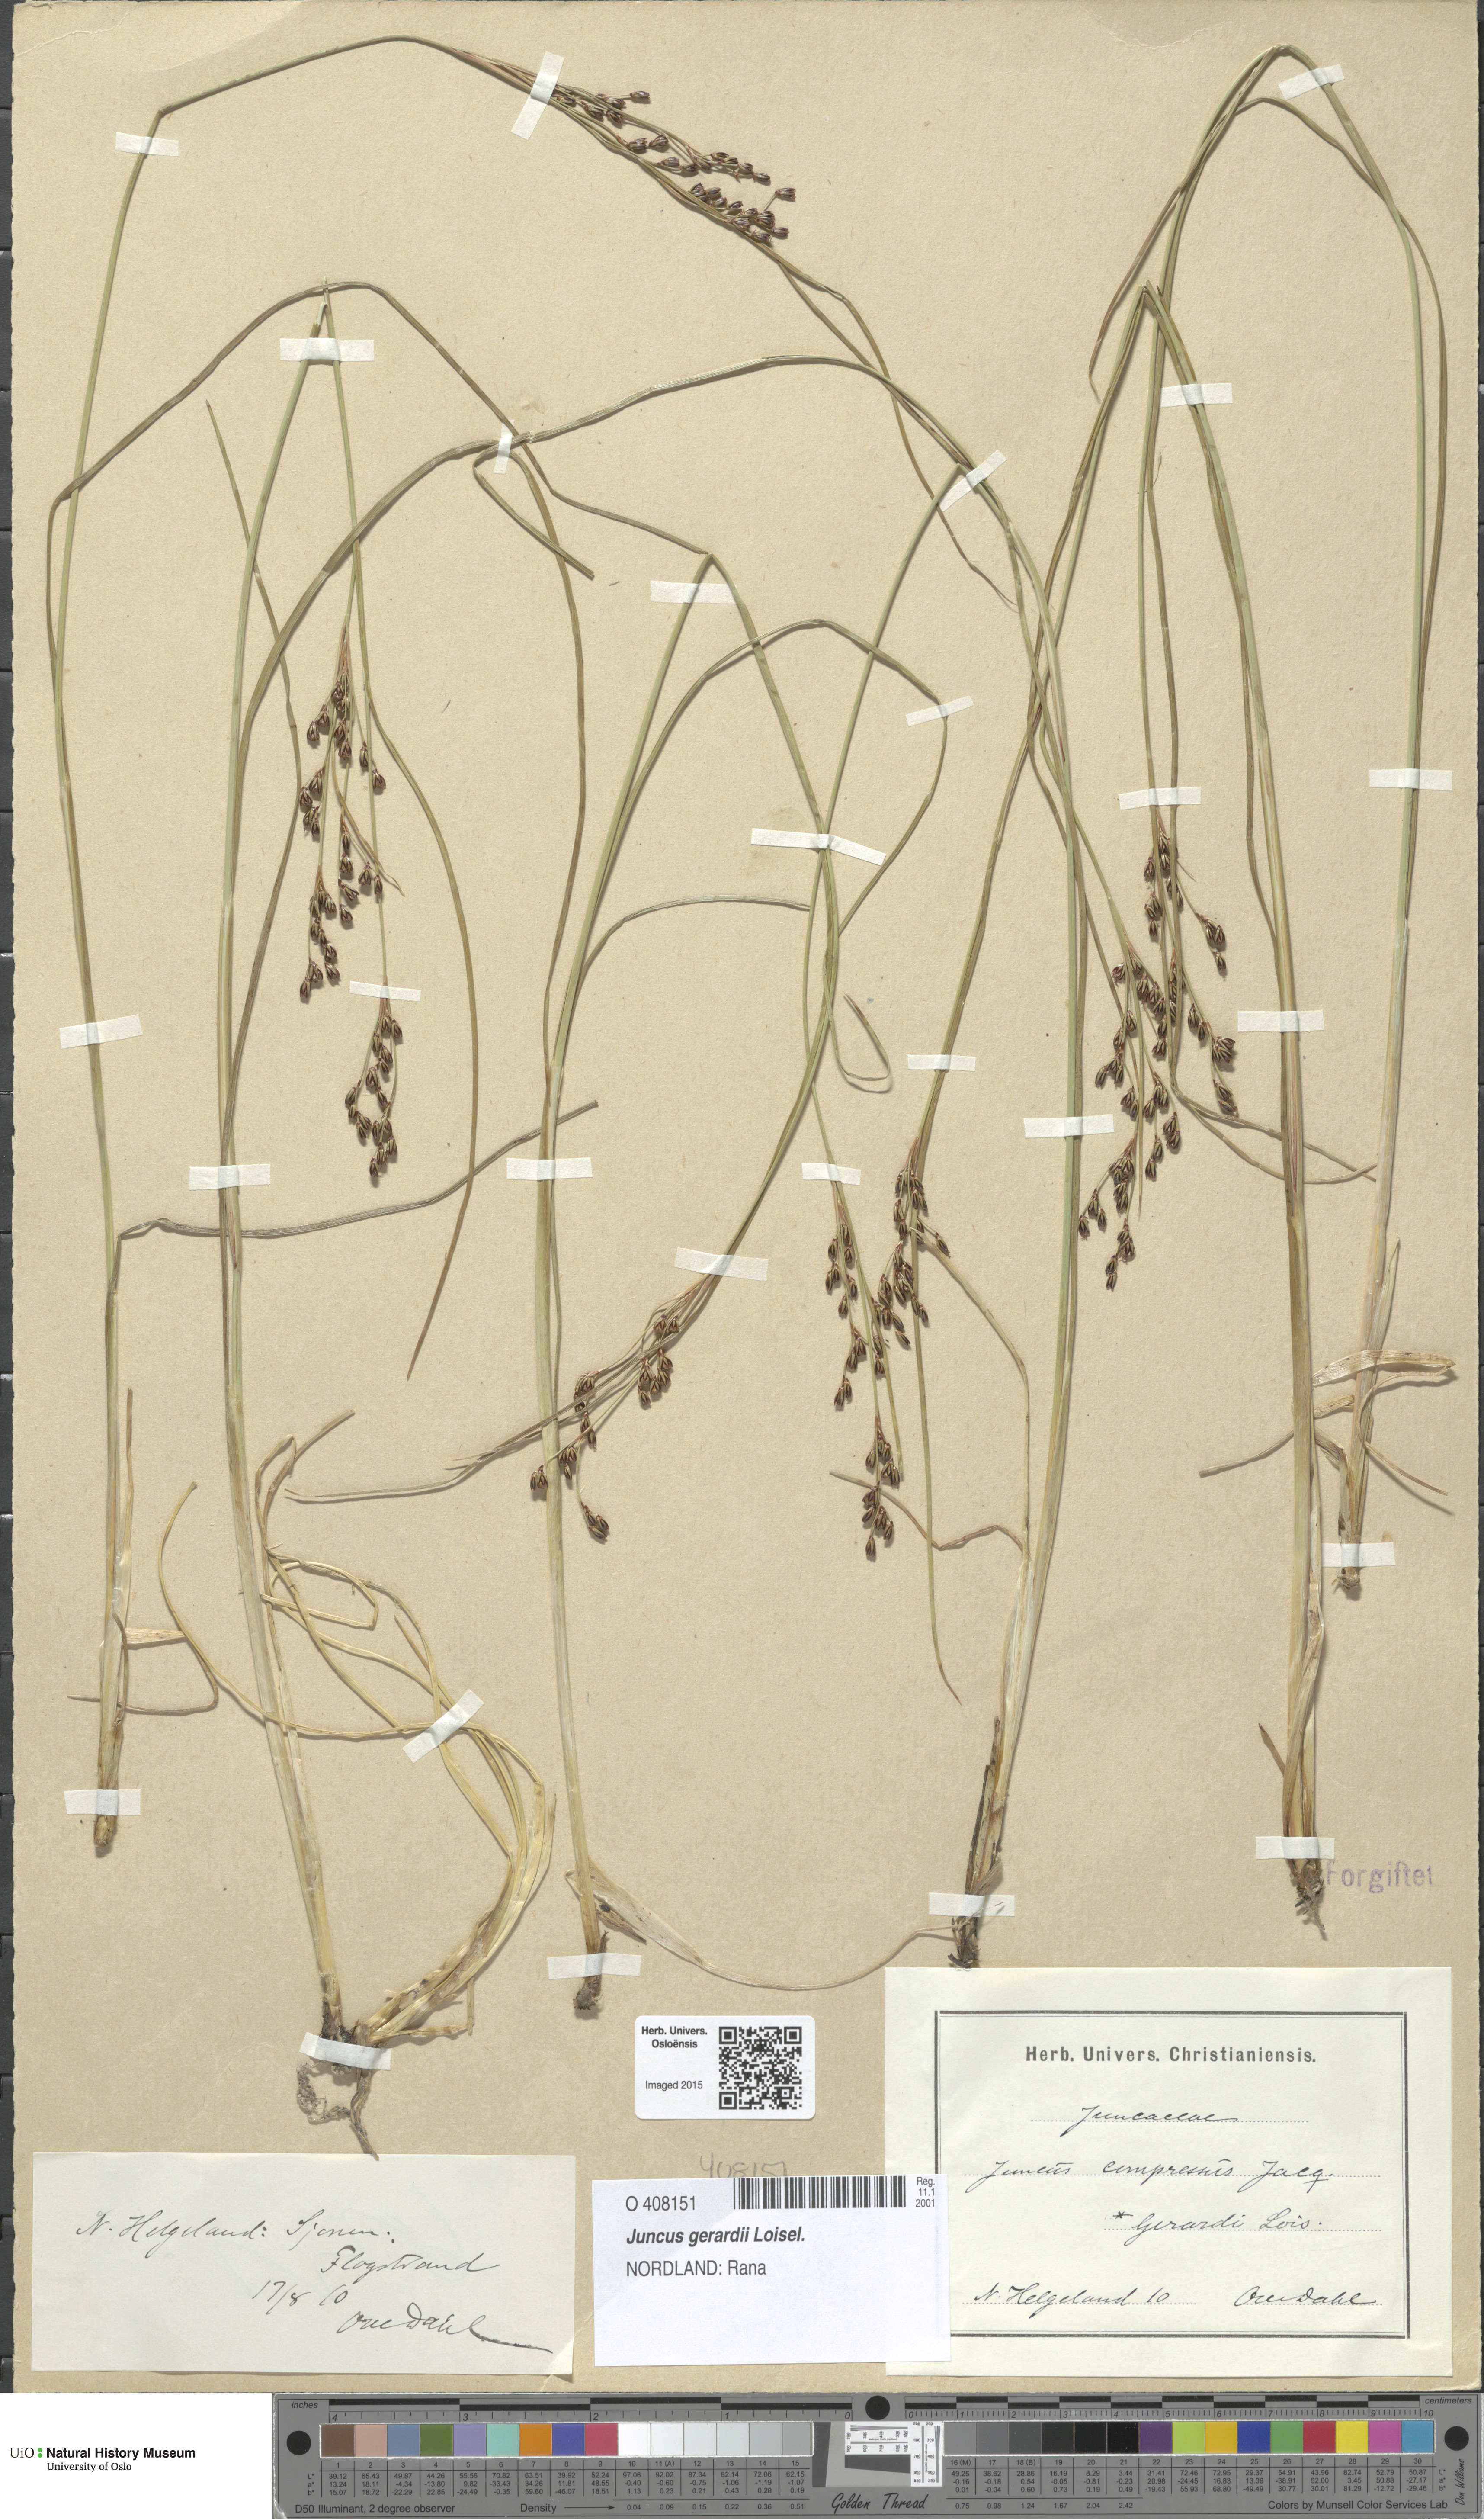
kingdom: Plantae
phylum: Tracheophyta
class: Liliopsida
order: Poales
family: Juncaceae
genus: Juncus
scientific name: Juncus gerardi
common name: Saltmarsh rush
